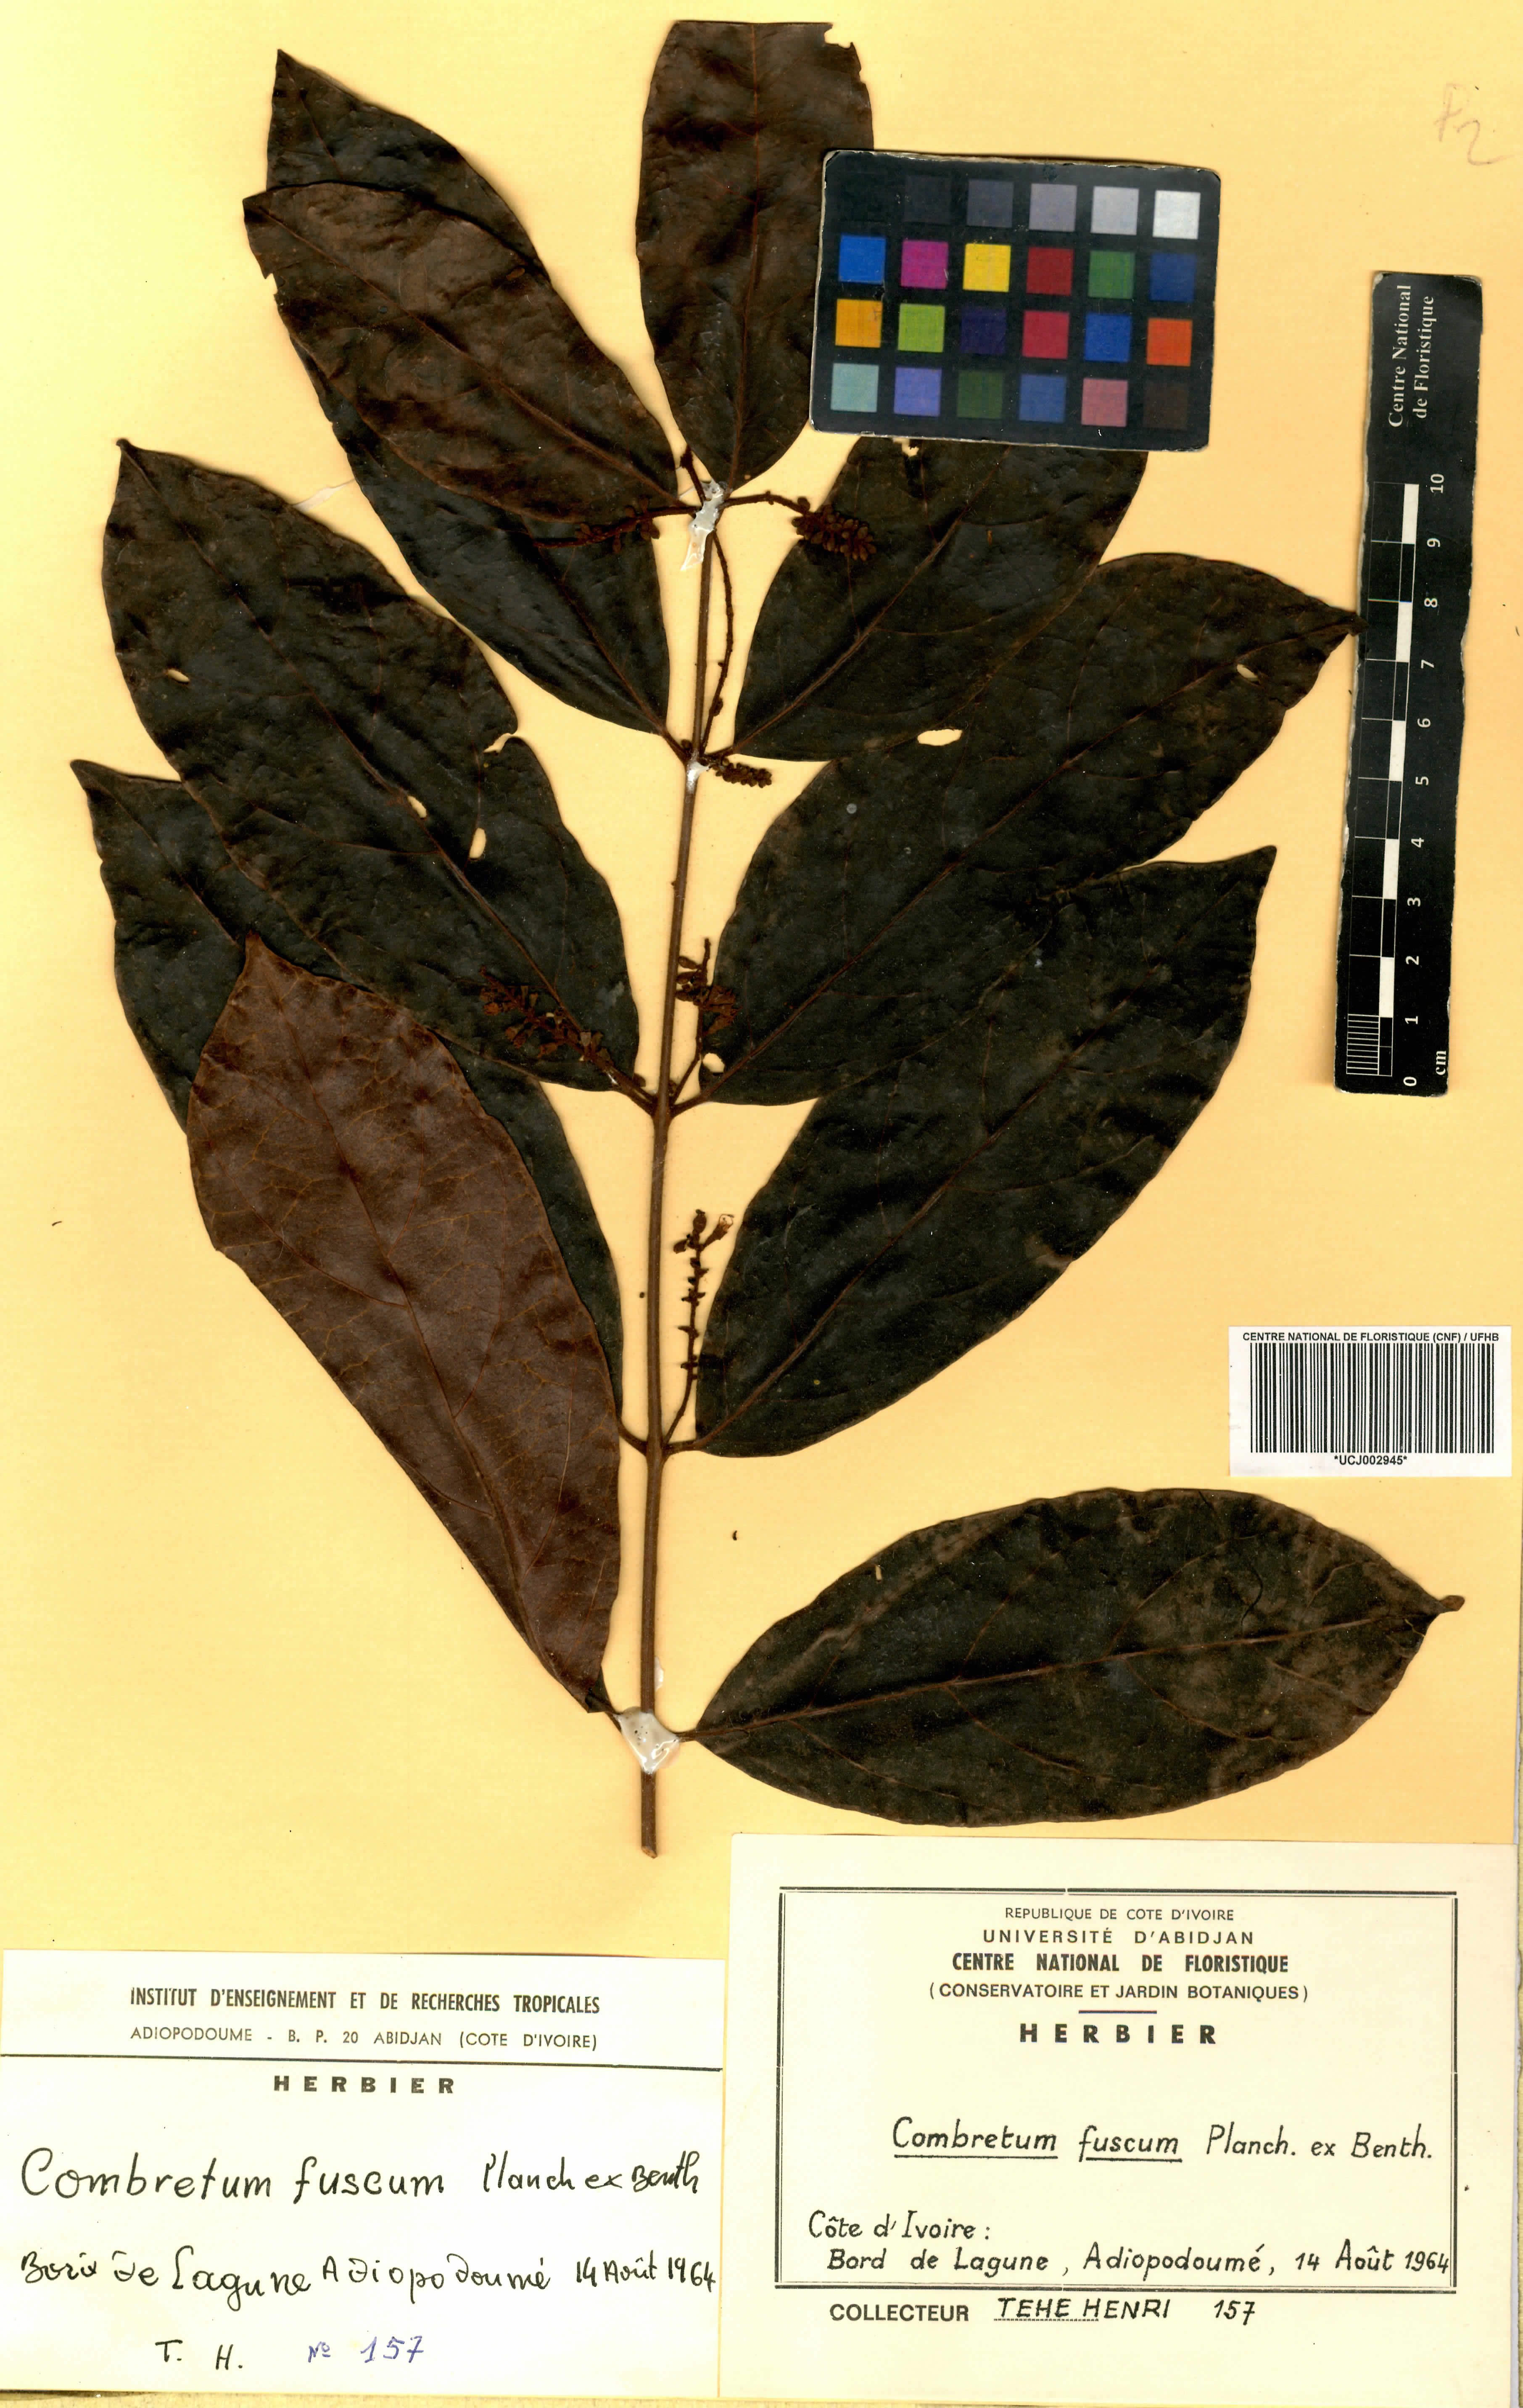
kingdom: Plantae
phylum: Tracheophyta
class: Magnoliopsida
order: Myrtales
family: Combretaceae
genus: Combretum
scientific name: Combretum fuscum
